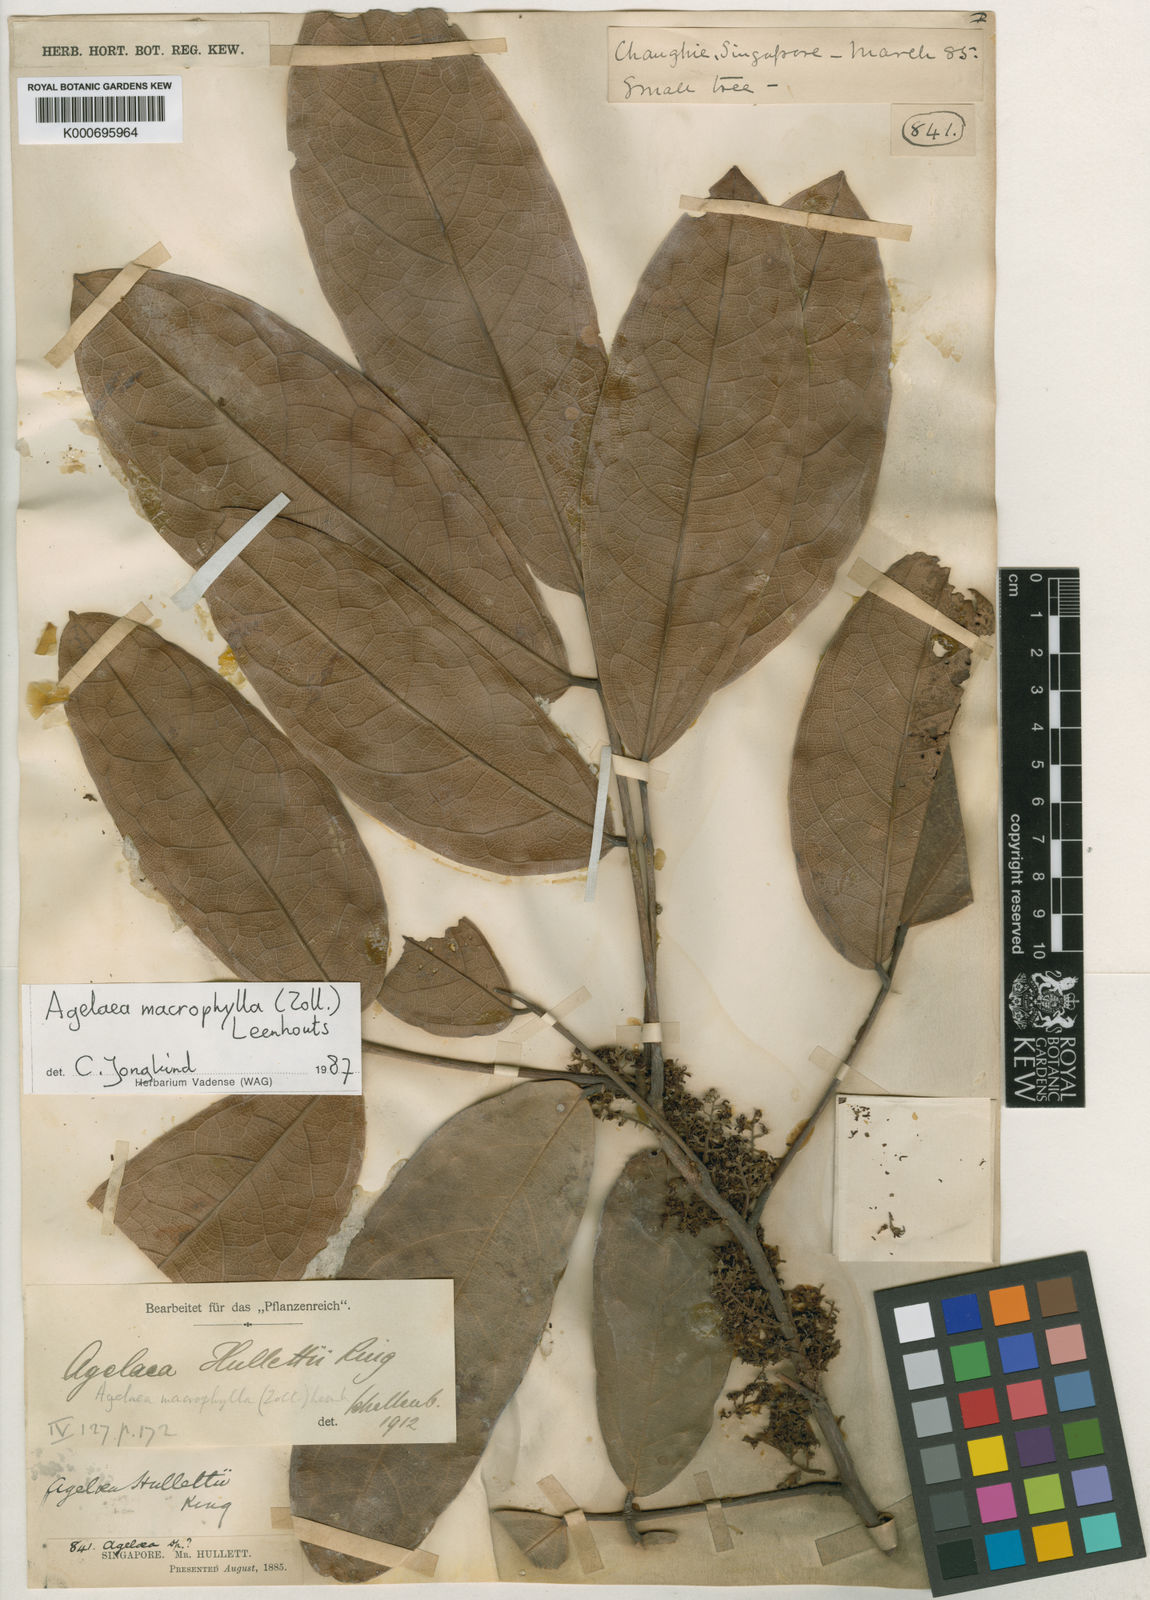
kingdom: Plantae
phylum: Tracheophyta
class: Magnoliopsida
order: Oxalidales
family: Connaraceae
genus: Agelaea
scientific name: Agelaea macrophylla
